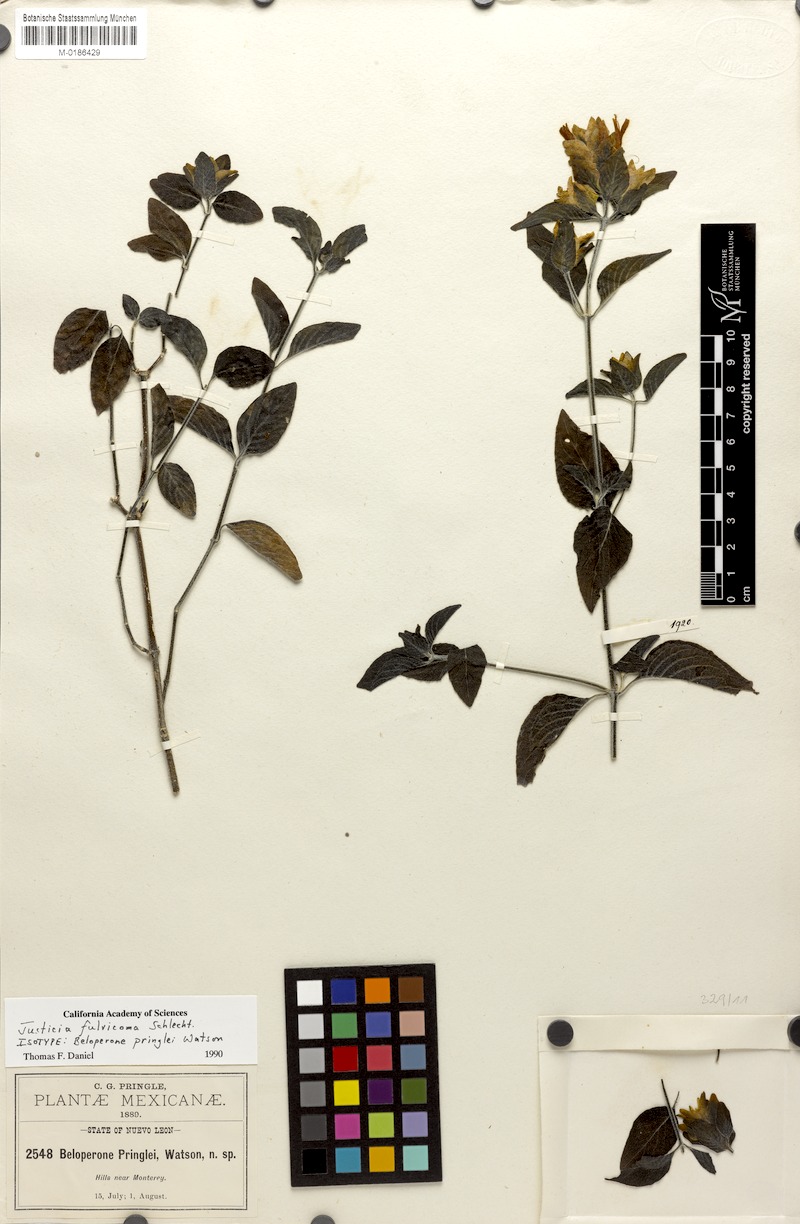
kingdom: Plantae
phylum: Tracheophyta
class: Magnoliopsida
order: Lamiales
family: Acanthaceae
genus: Justicia
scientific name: Justicia fulvicoma
